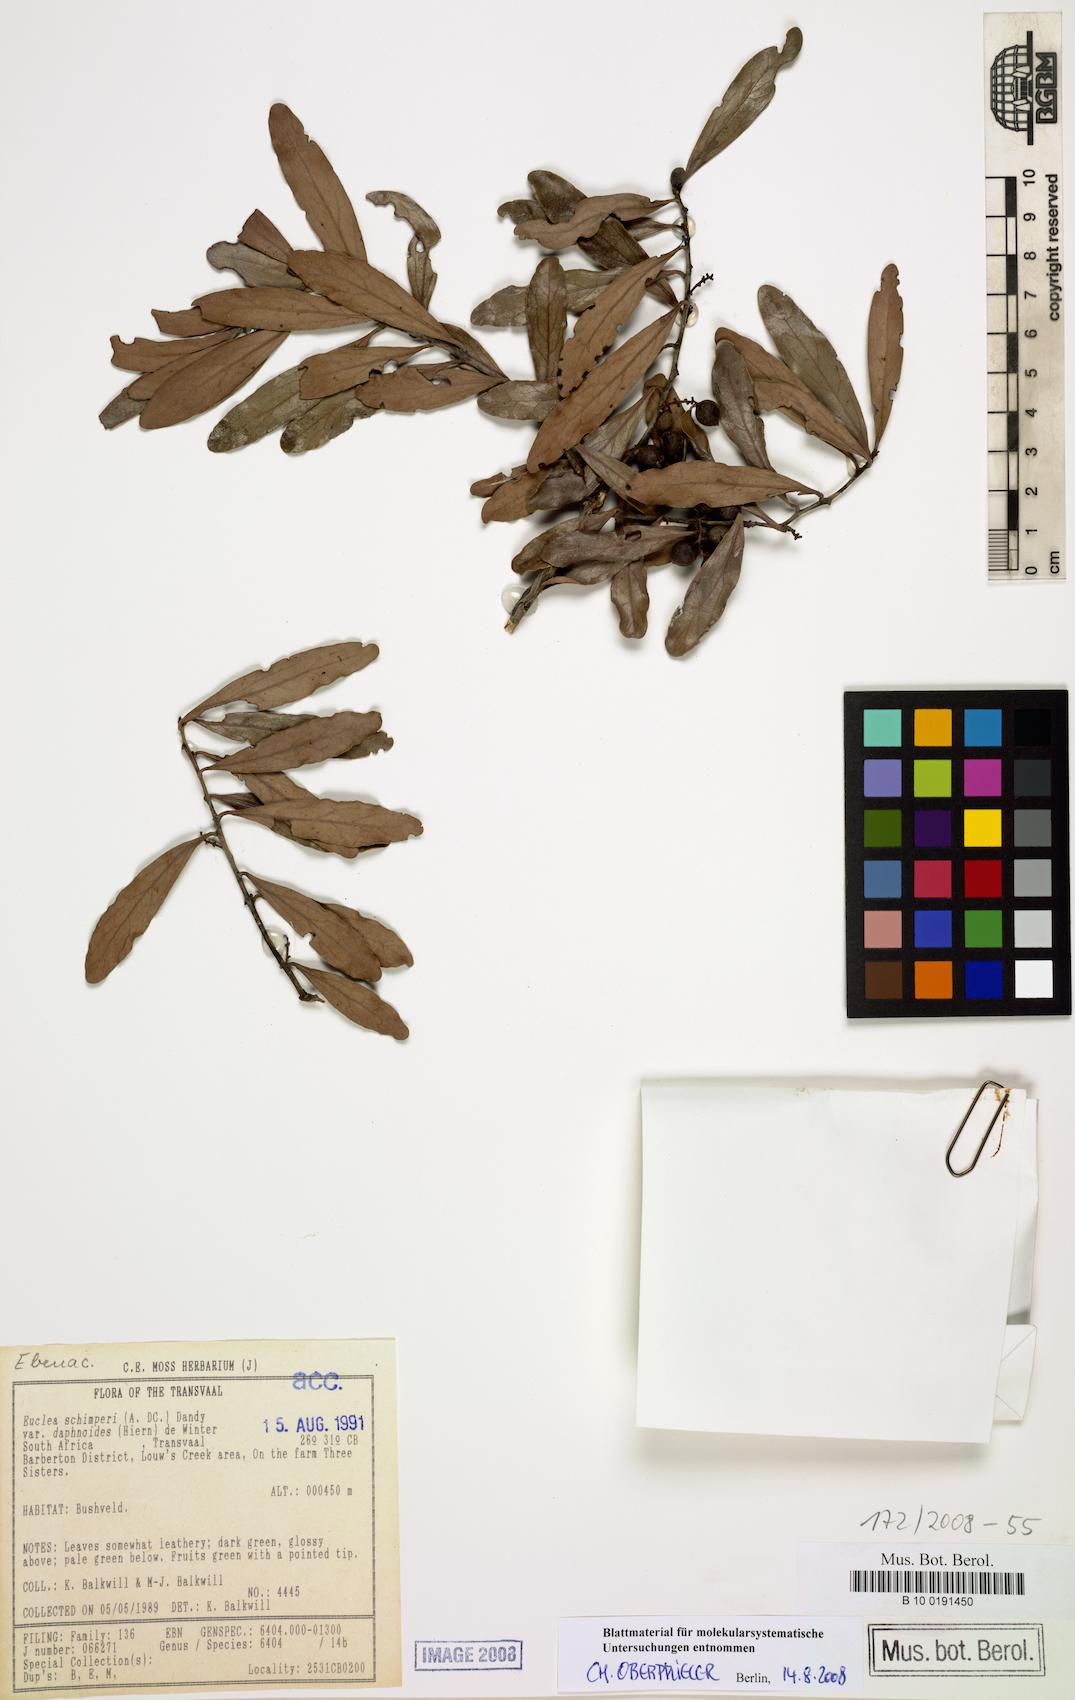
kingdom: Plantae
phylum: Tracheophyta
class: Magnoliopsida
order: Ericales
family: Ebenaceae
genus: Euclea
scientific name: Euclea racemosa
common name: Dune guarri
